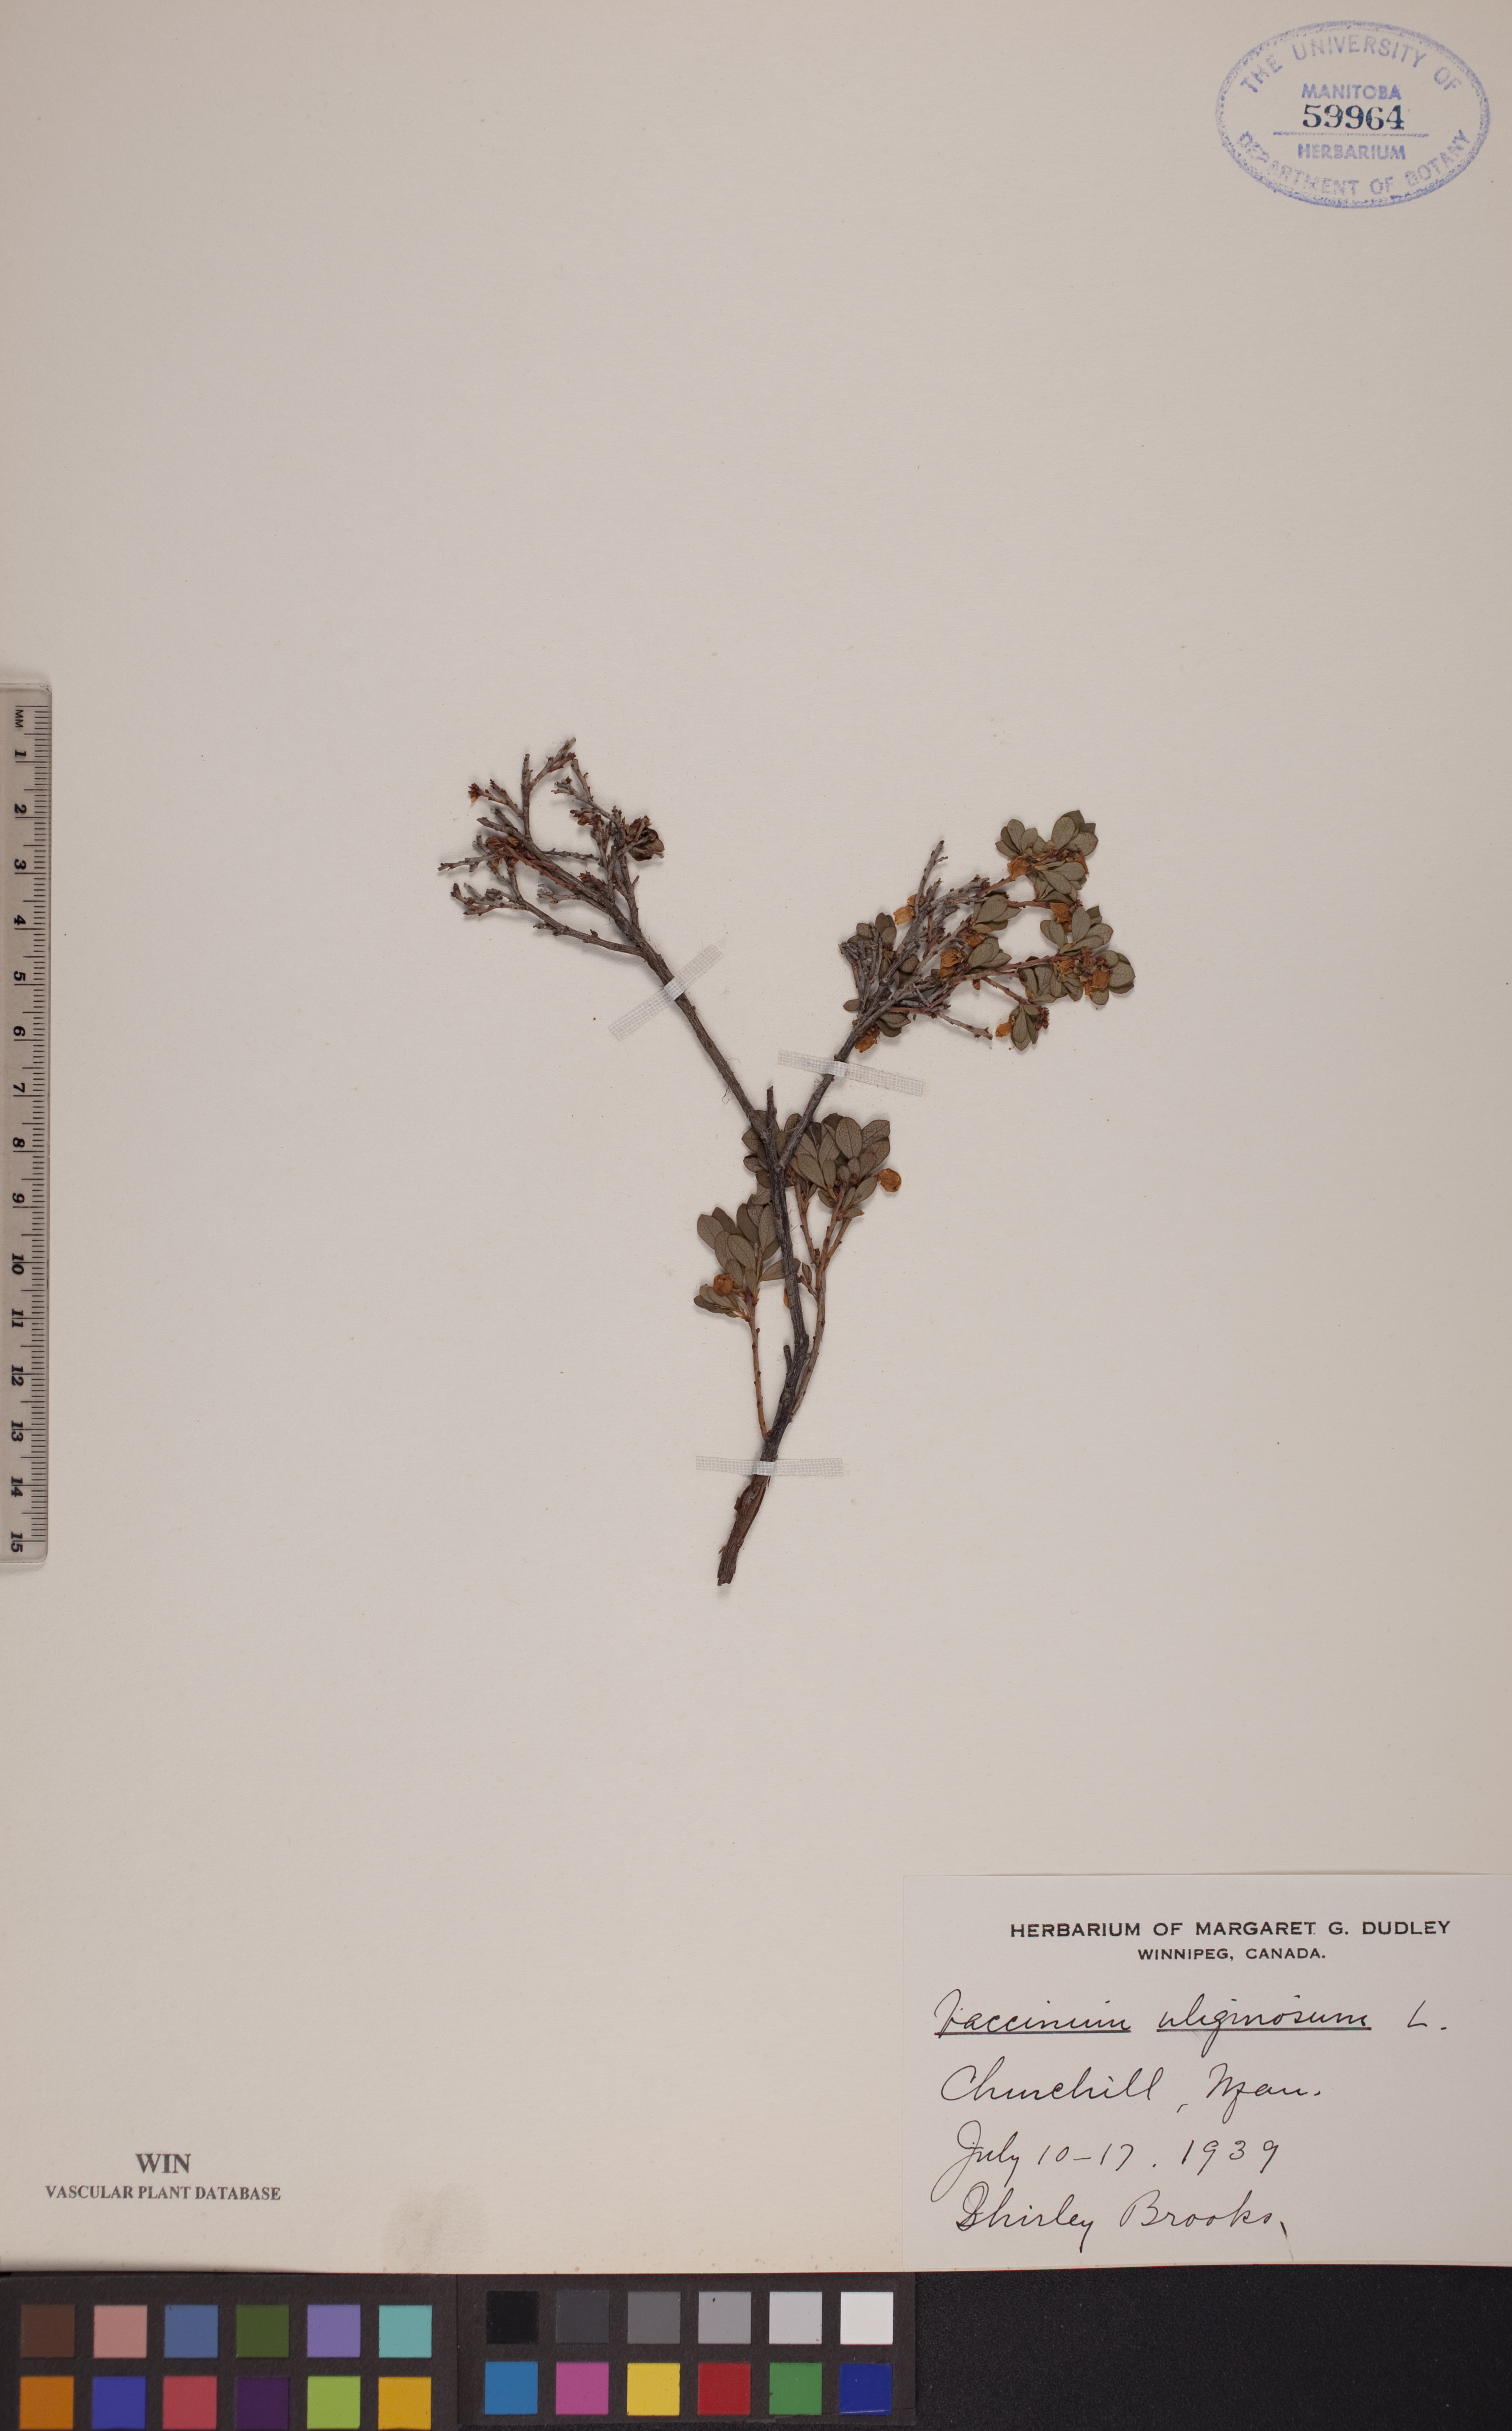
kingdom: Plantae
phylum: Tracheophyta
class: Magnoliopsida
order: Ericales
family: Ericaceae
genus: Vaccinium
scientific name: Vaccinium uliginosum
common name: Bog bilberry
